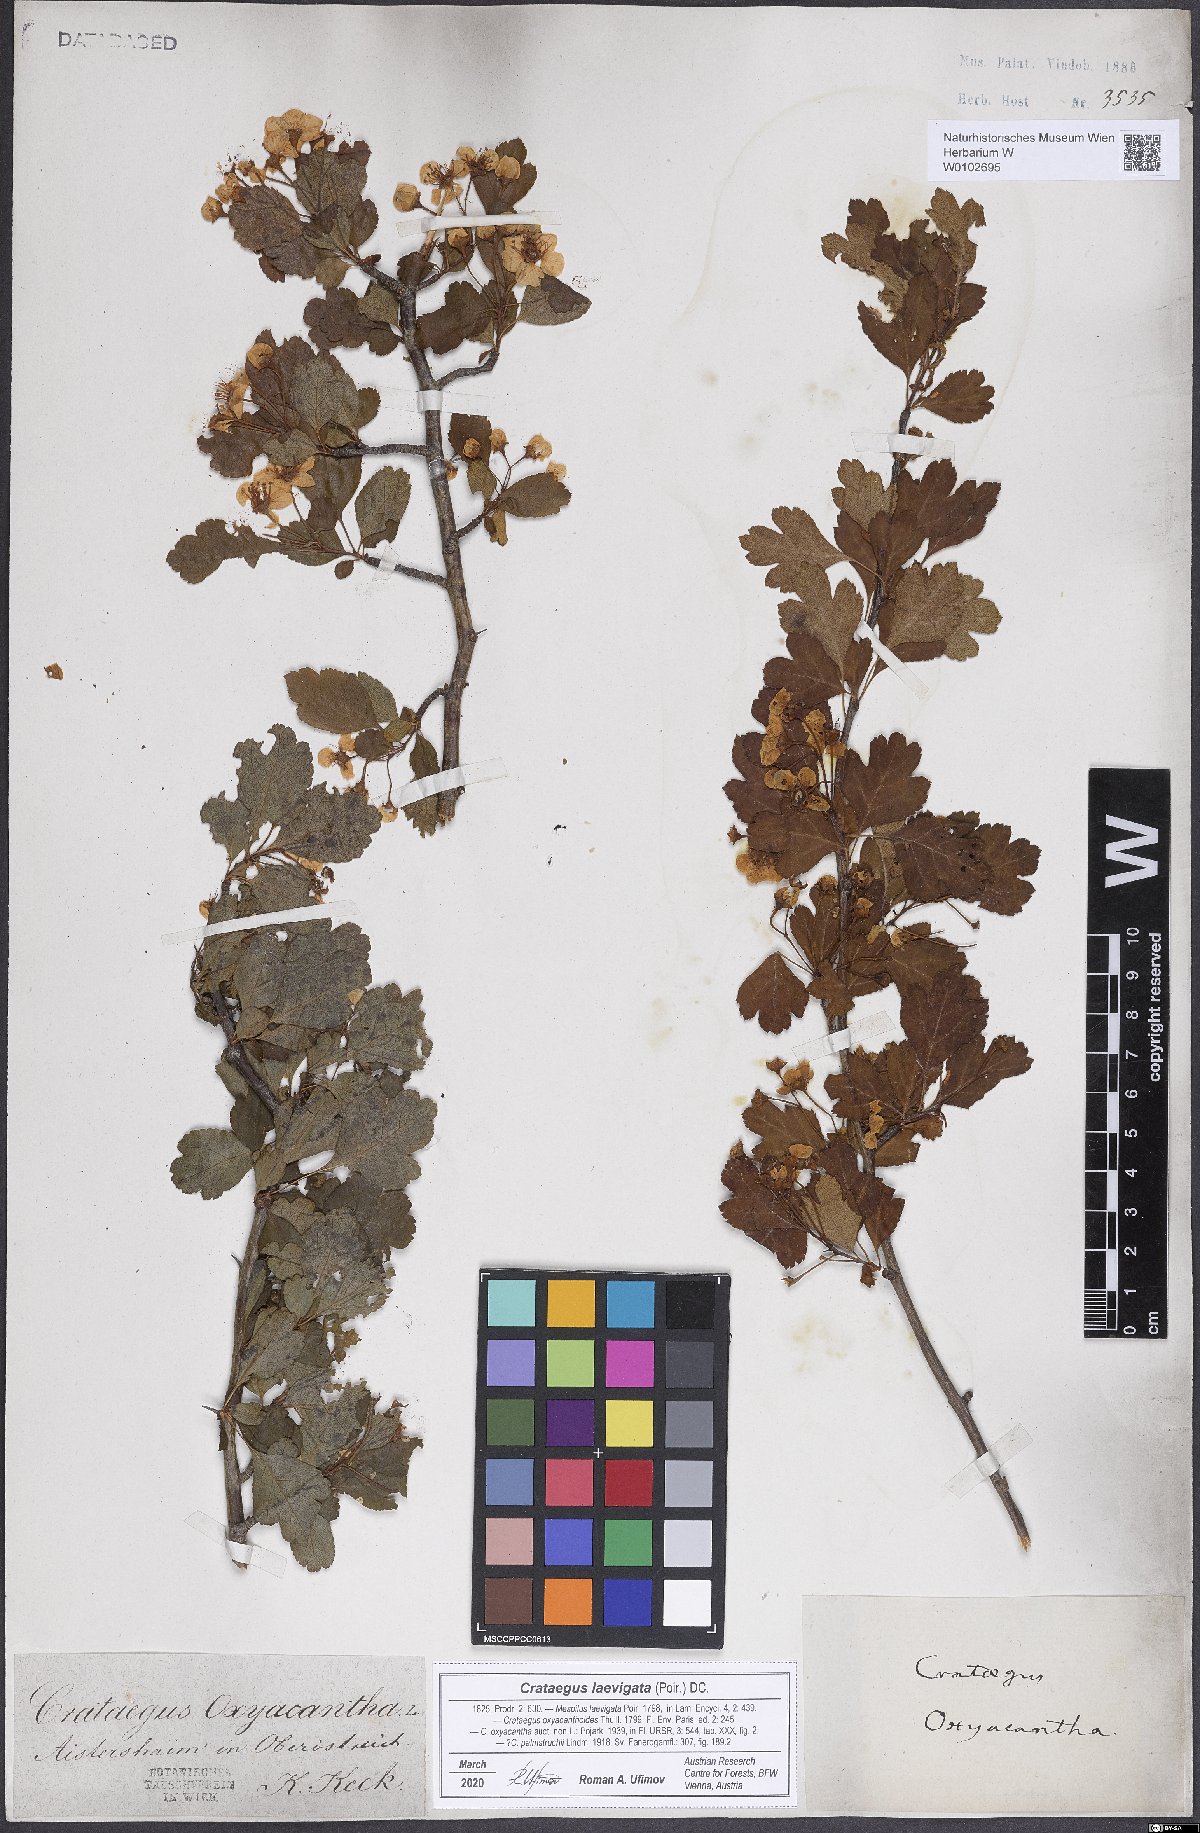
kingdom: Plantae
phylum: Tracheophyta
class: Magnoliopsida
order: Rosales
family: Rosaceae
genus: Crataegus
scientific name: Crataegus laevigata
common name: Midland hawthorn
